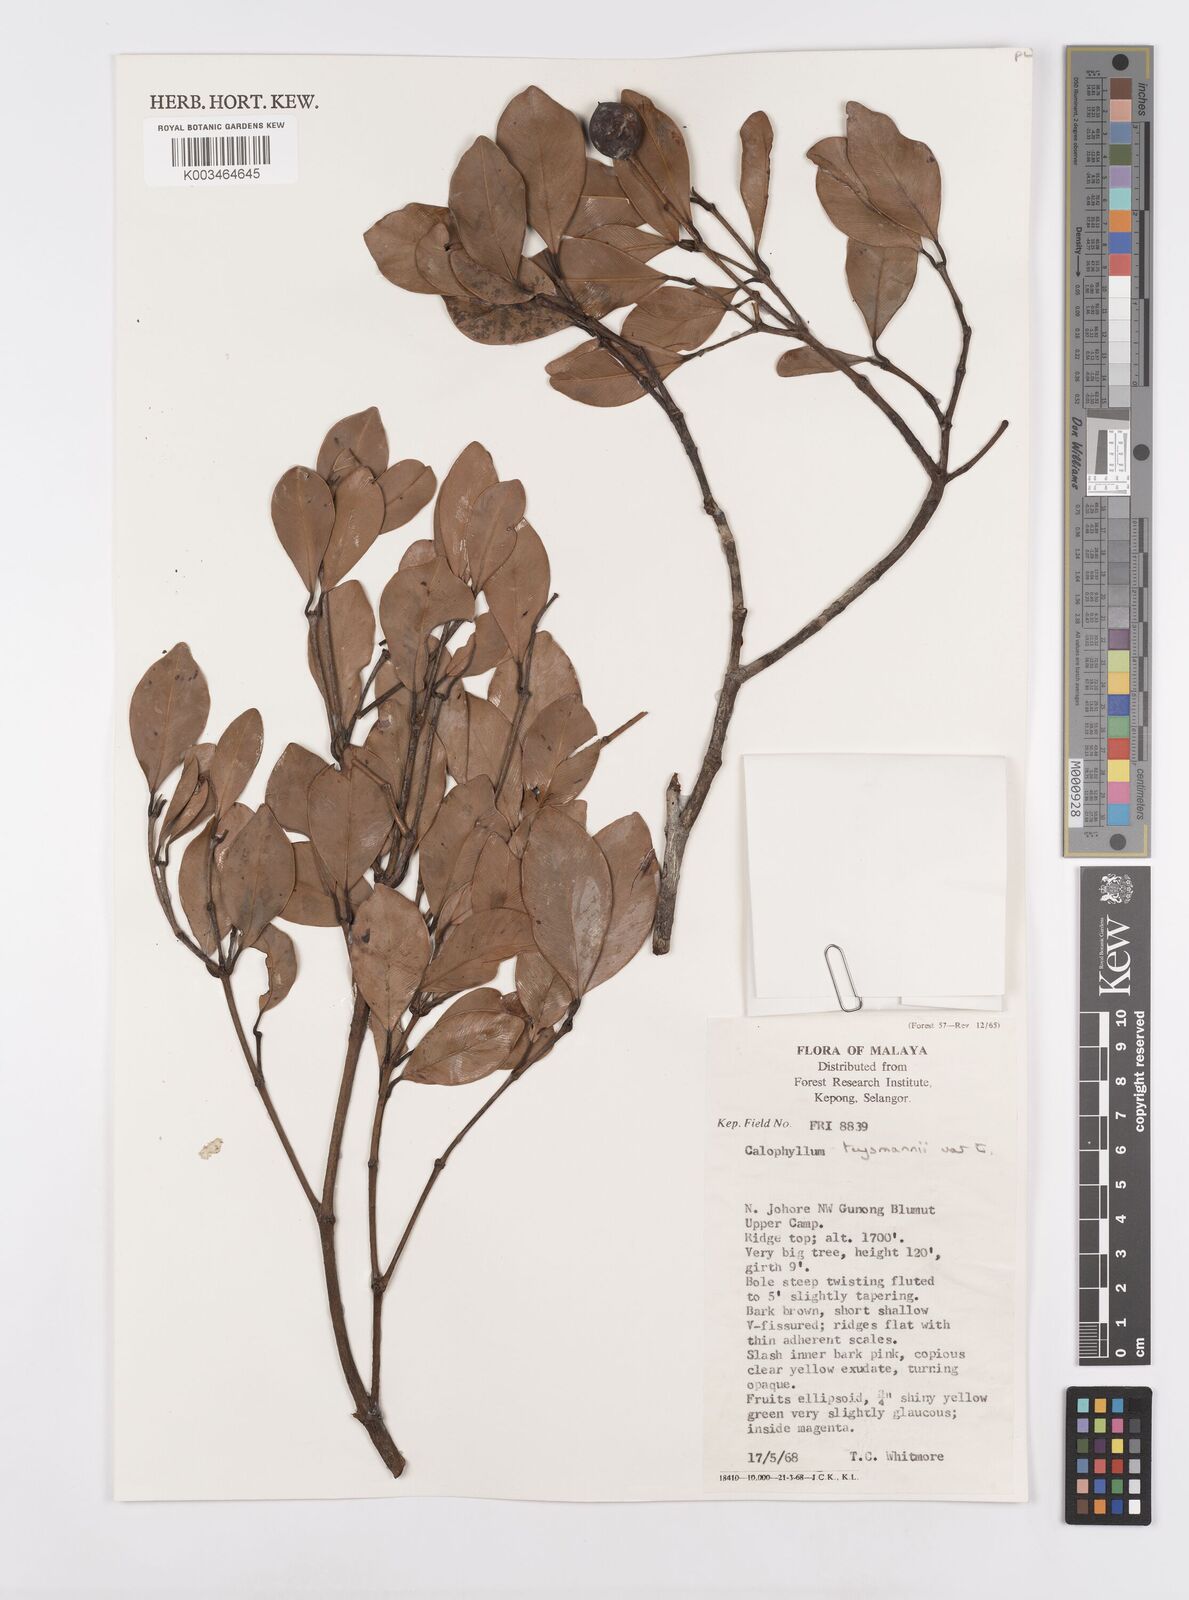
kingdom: Plantae
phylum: Tracheophyta
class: Magnoliopsida
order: Malpighiales
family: Calophyllaceae
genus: Calophyllum
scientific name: Calophyllum teysmannii
